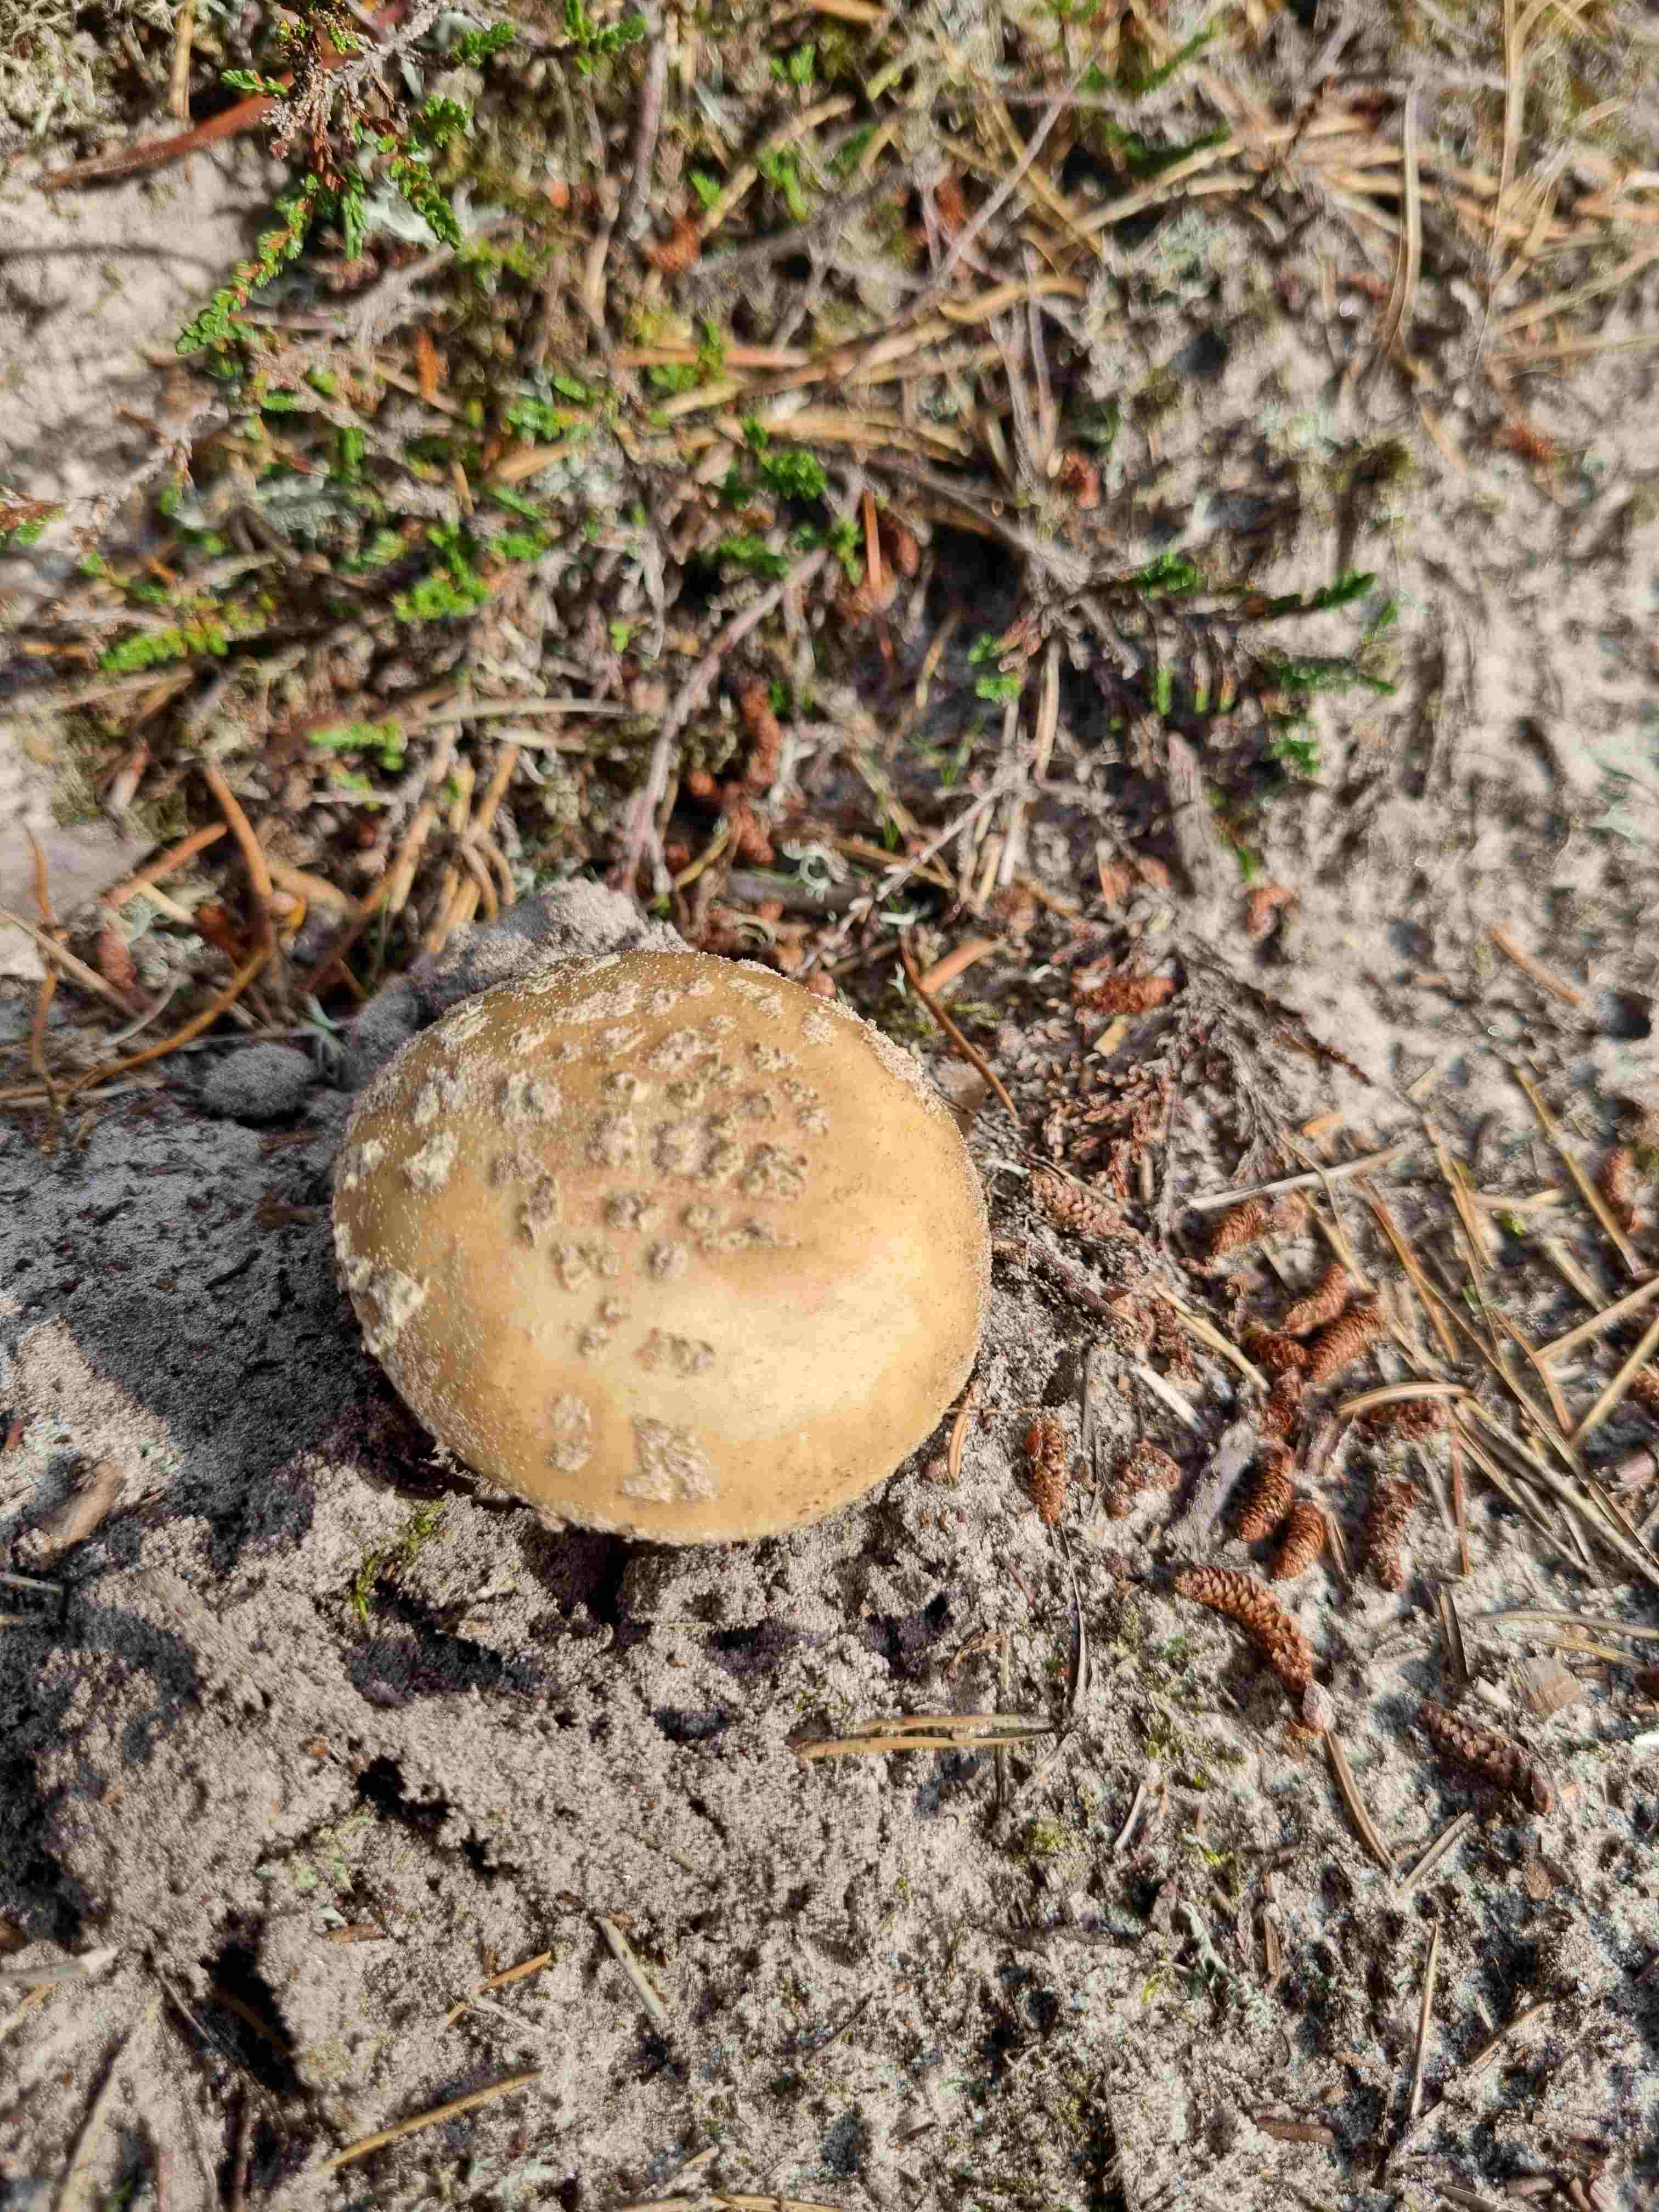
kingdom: Fungi
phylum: Basidiomycota
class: Agaricomycetes
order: Agaricales
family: Amanitaceae
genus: Amanita
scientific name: Amanita rubescens
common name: rødmende fluesvamp
